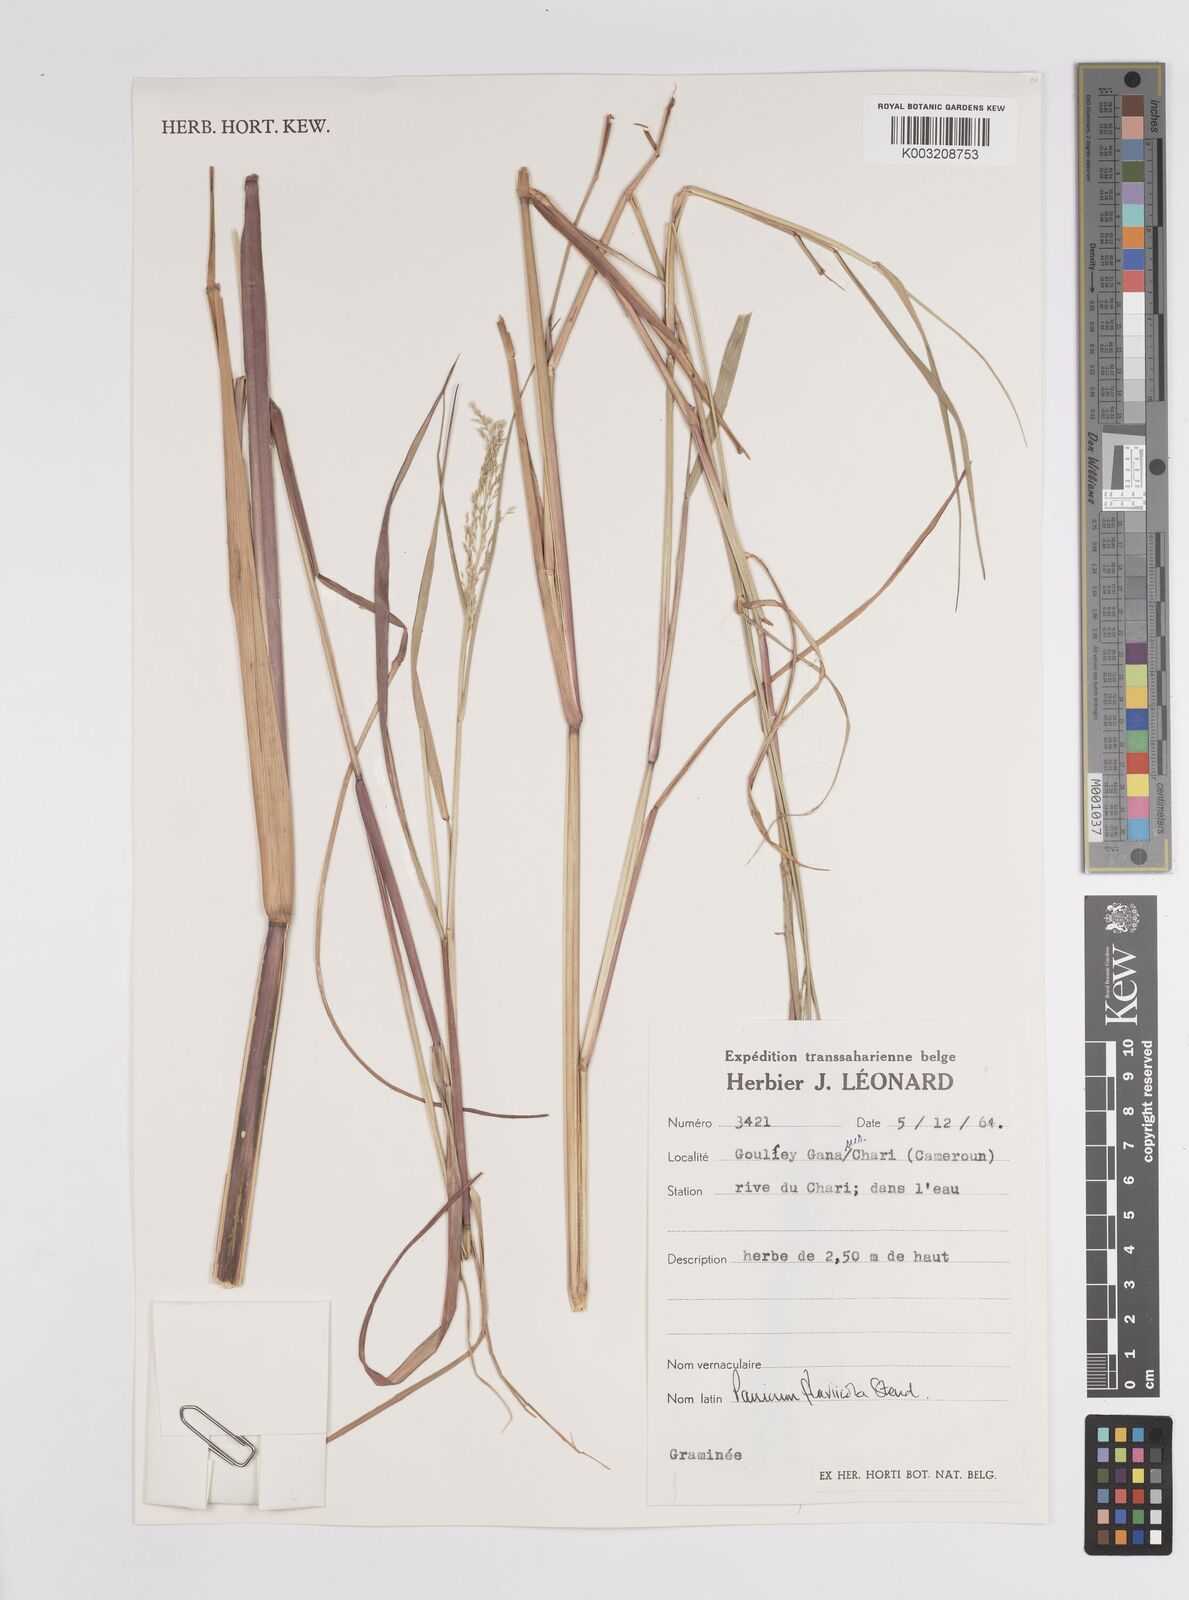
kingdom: Plantae
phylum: Tracheophyta
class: Liliopsida
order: Poales
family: Poaceae
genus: Panicum
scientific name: Panicum fluviicola
